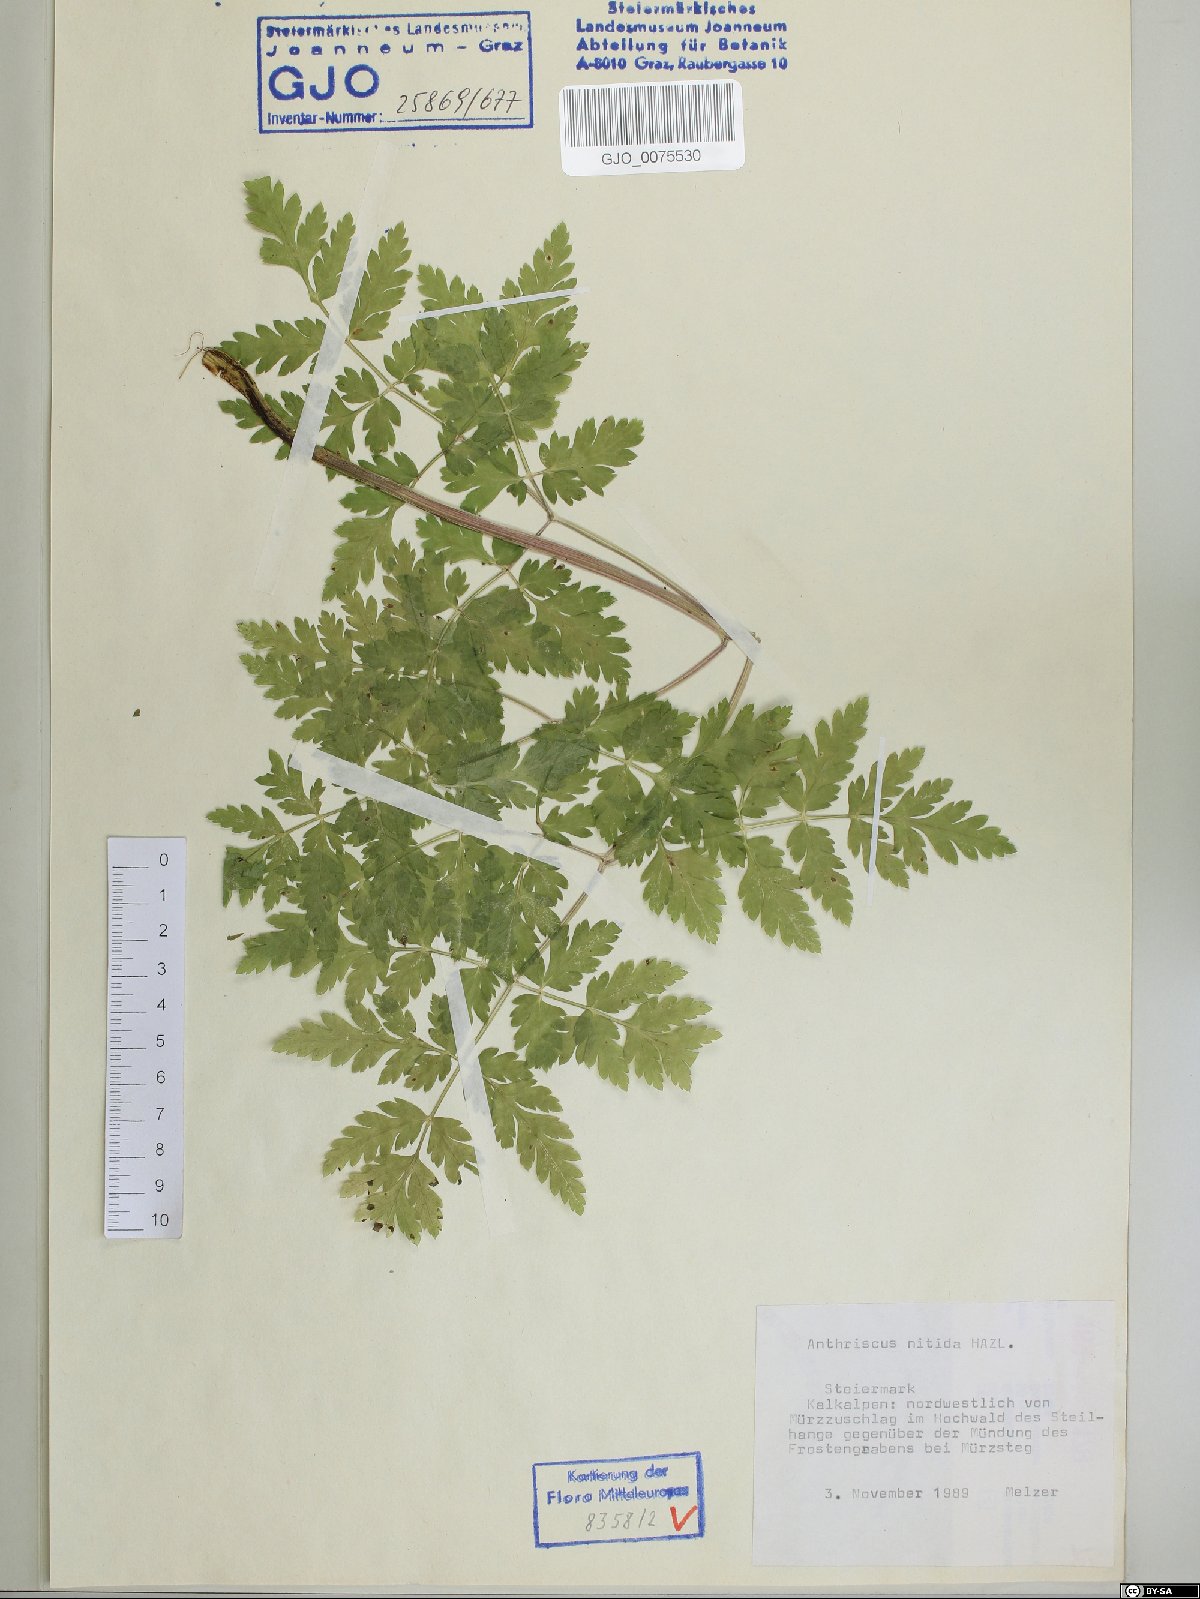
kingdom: Plantae
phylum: Tracheophyta
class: Magnoliopsida
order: Apiales
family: Apiaceae
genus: Anthriscus
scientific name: Anthriscus nitida
